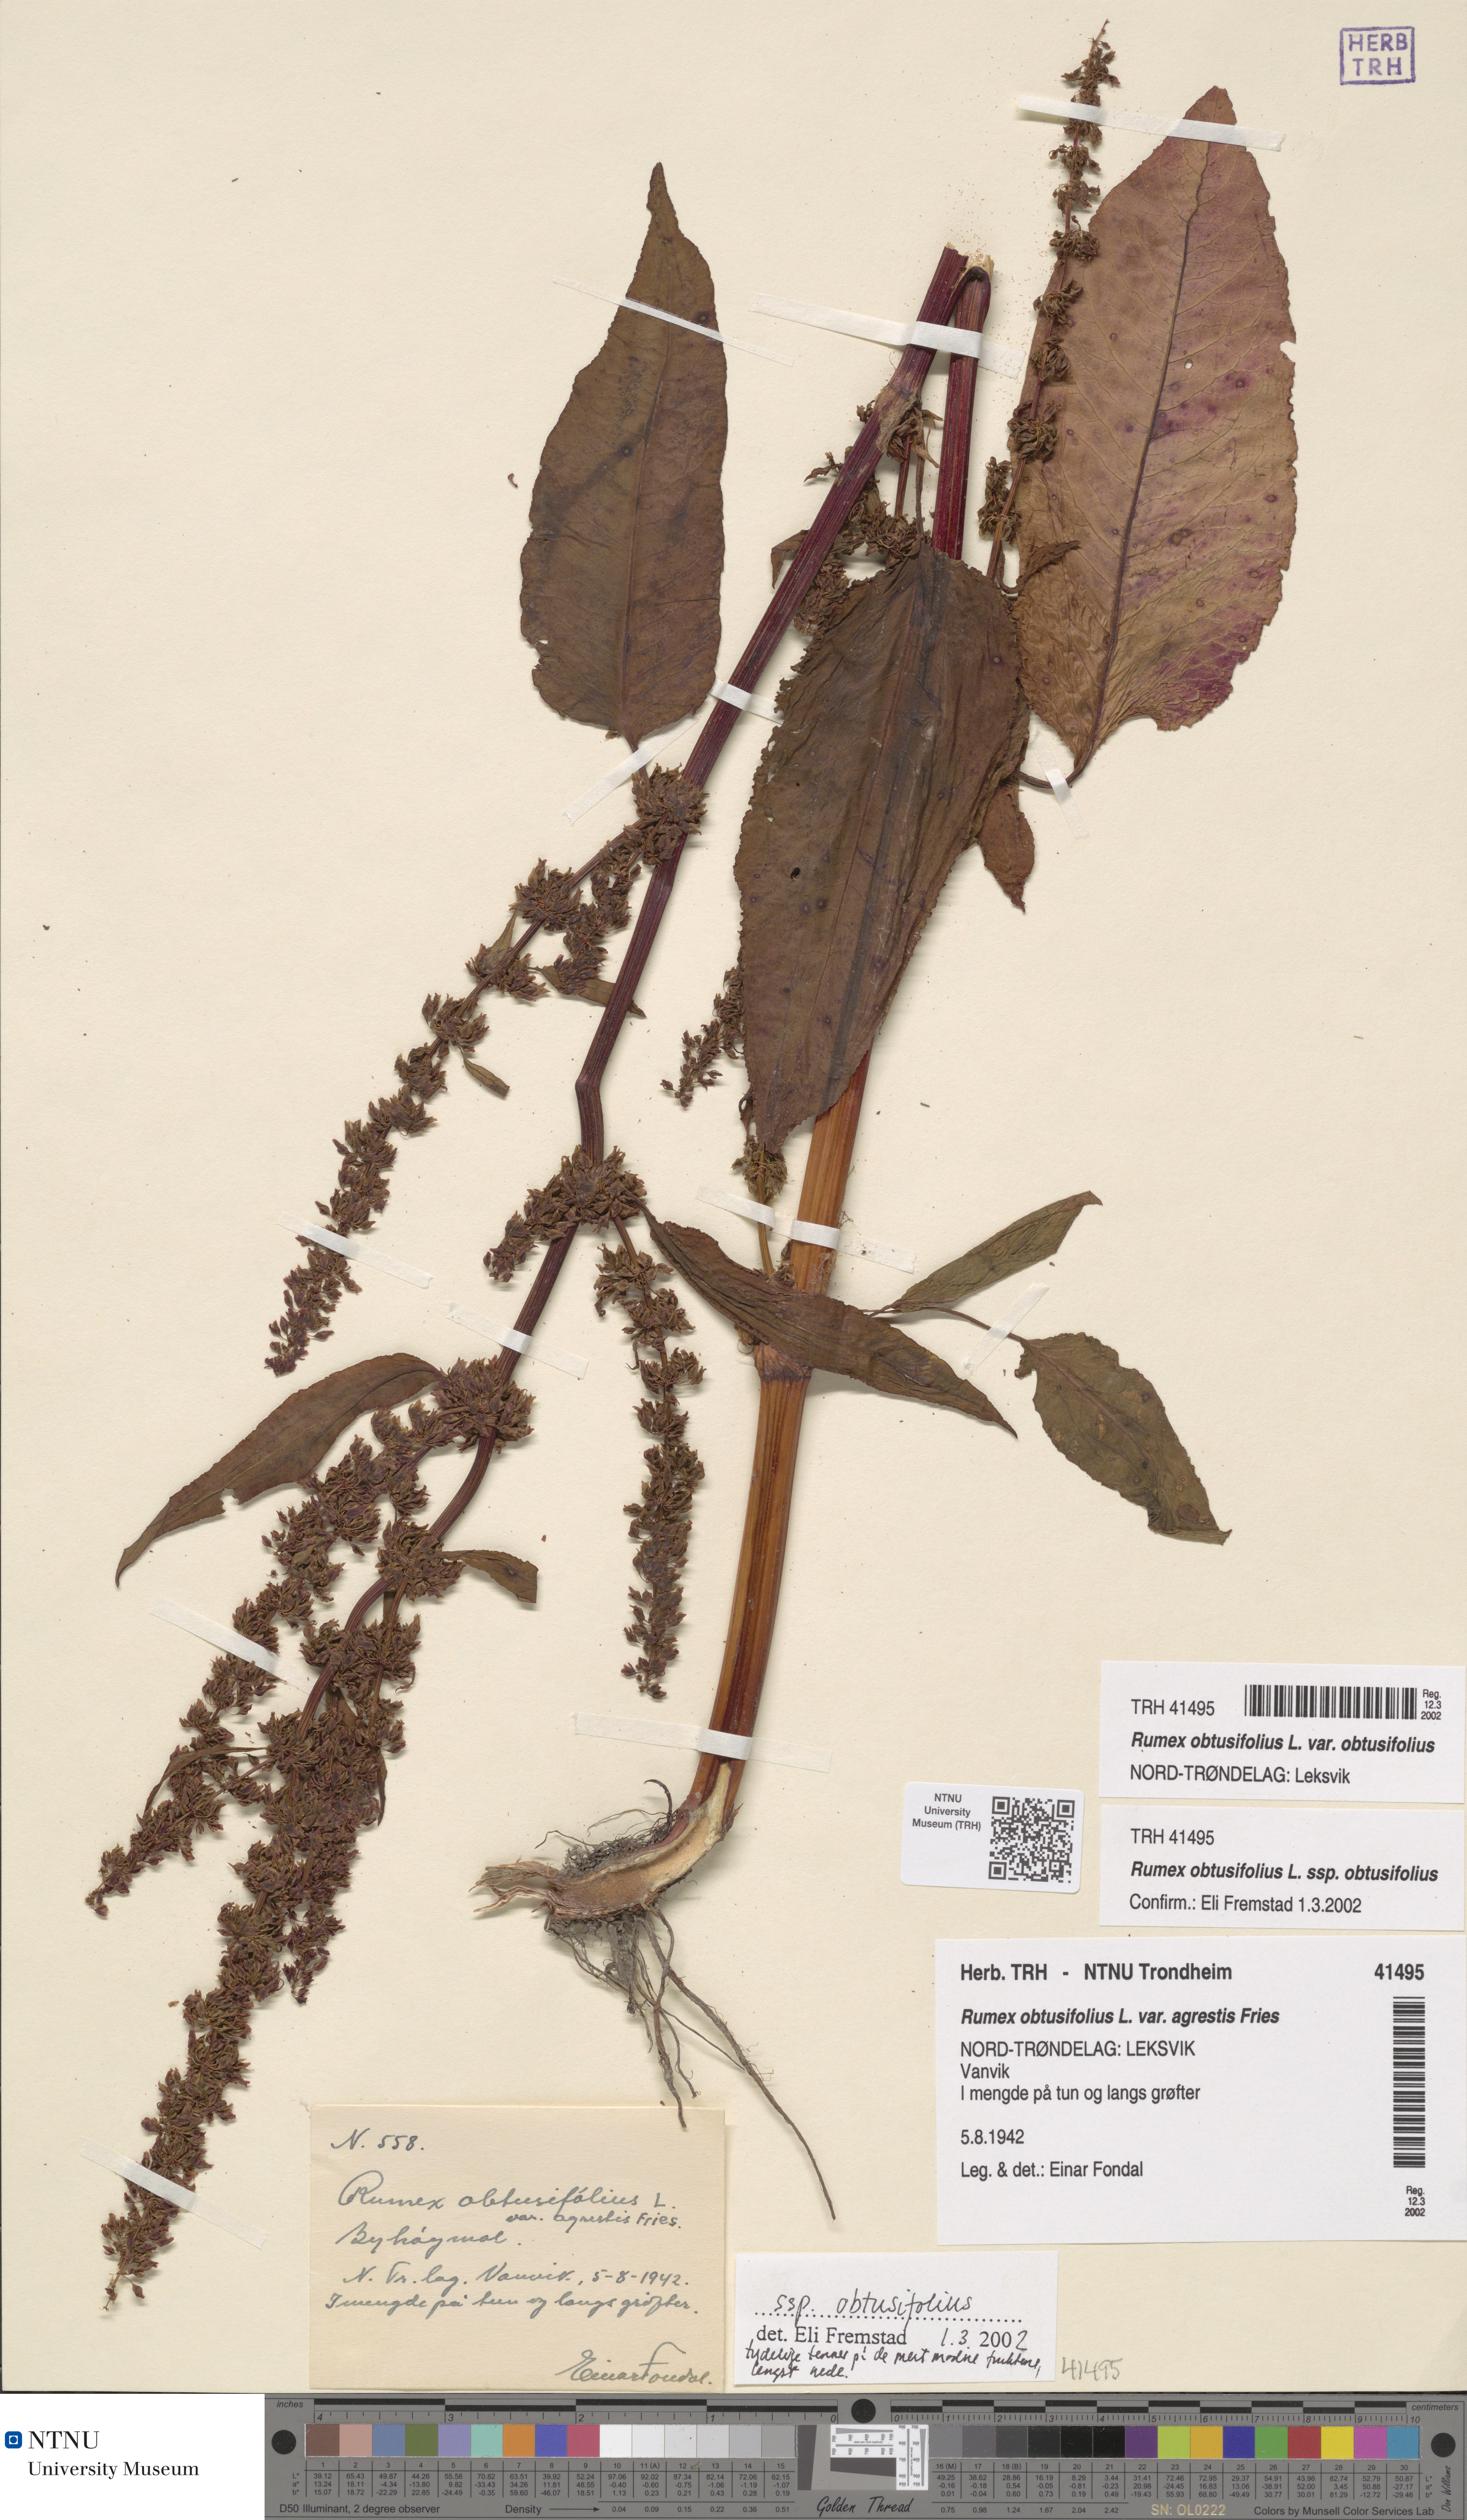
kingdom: Plantae
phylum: Tracheophyta
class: Magnoliopsida
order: Caryophyllales
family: Polygonaceae
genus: Rumex
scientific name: Rumex obtusifolius
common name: Bitter dock
